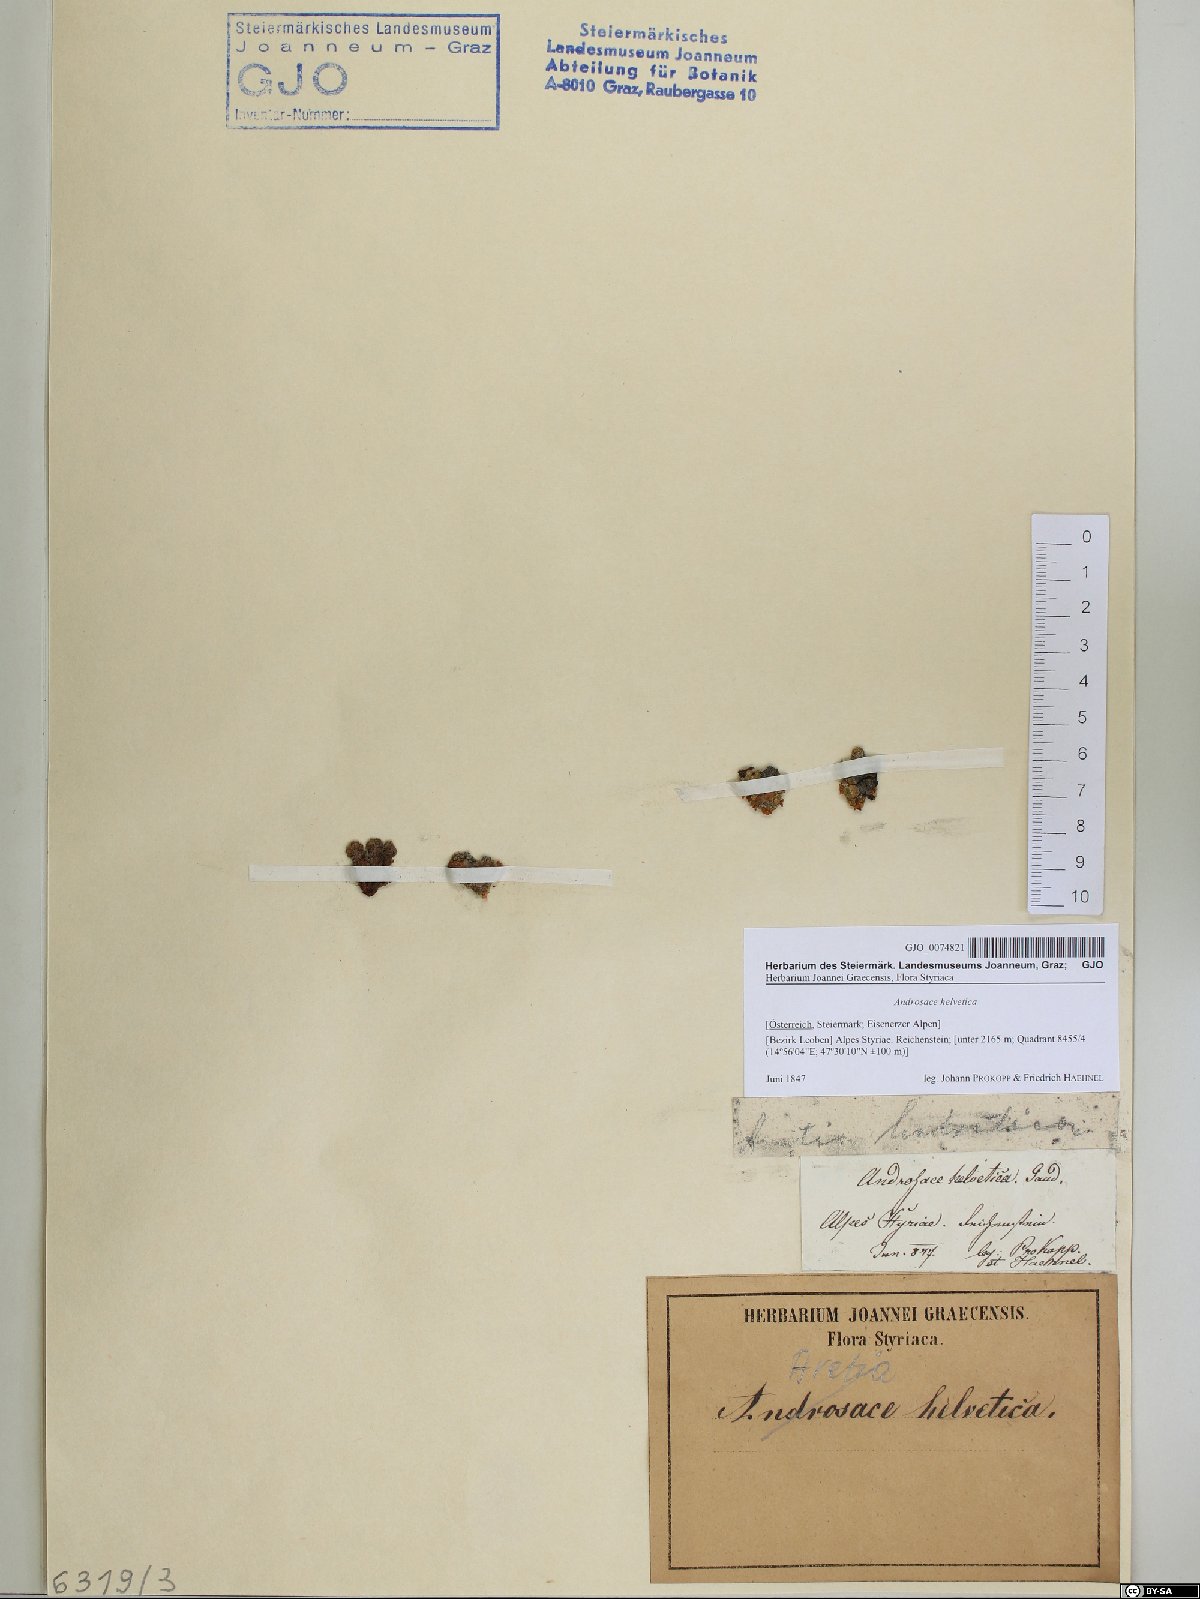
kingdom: Plantae
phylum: Tracheophyta
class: Magnoliopsida
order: Ericales
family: Primulaceae
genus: Androsace
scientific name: Androsace helvetica
